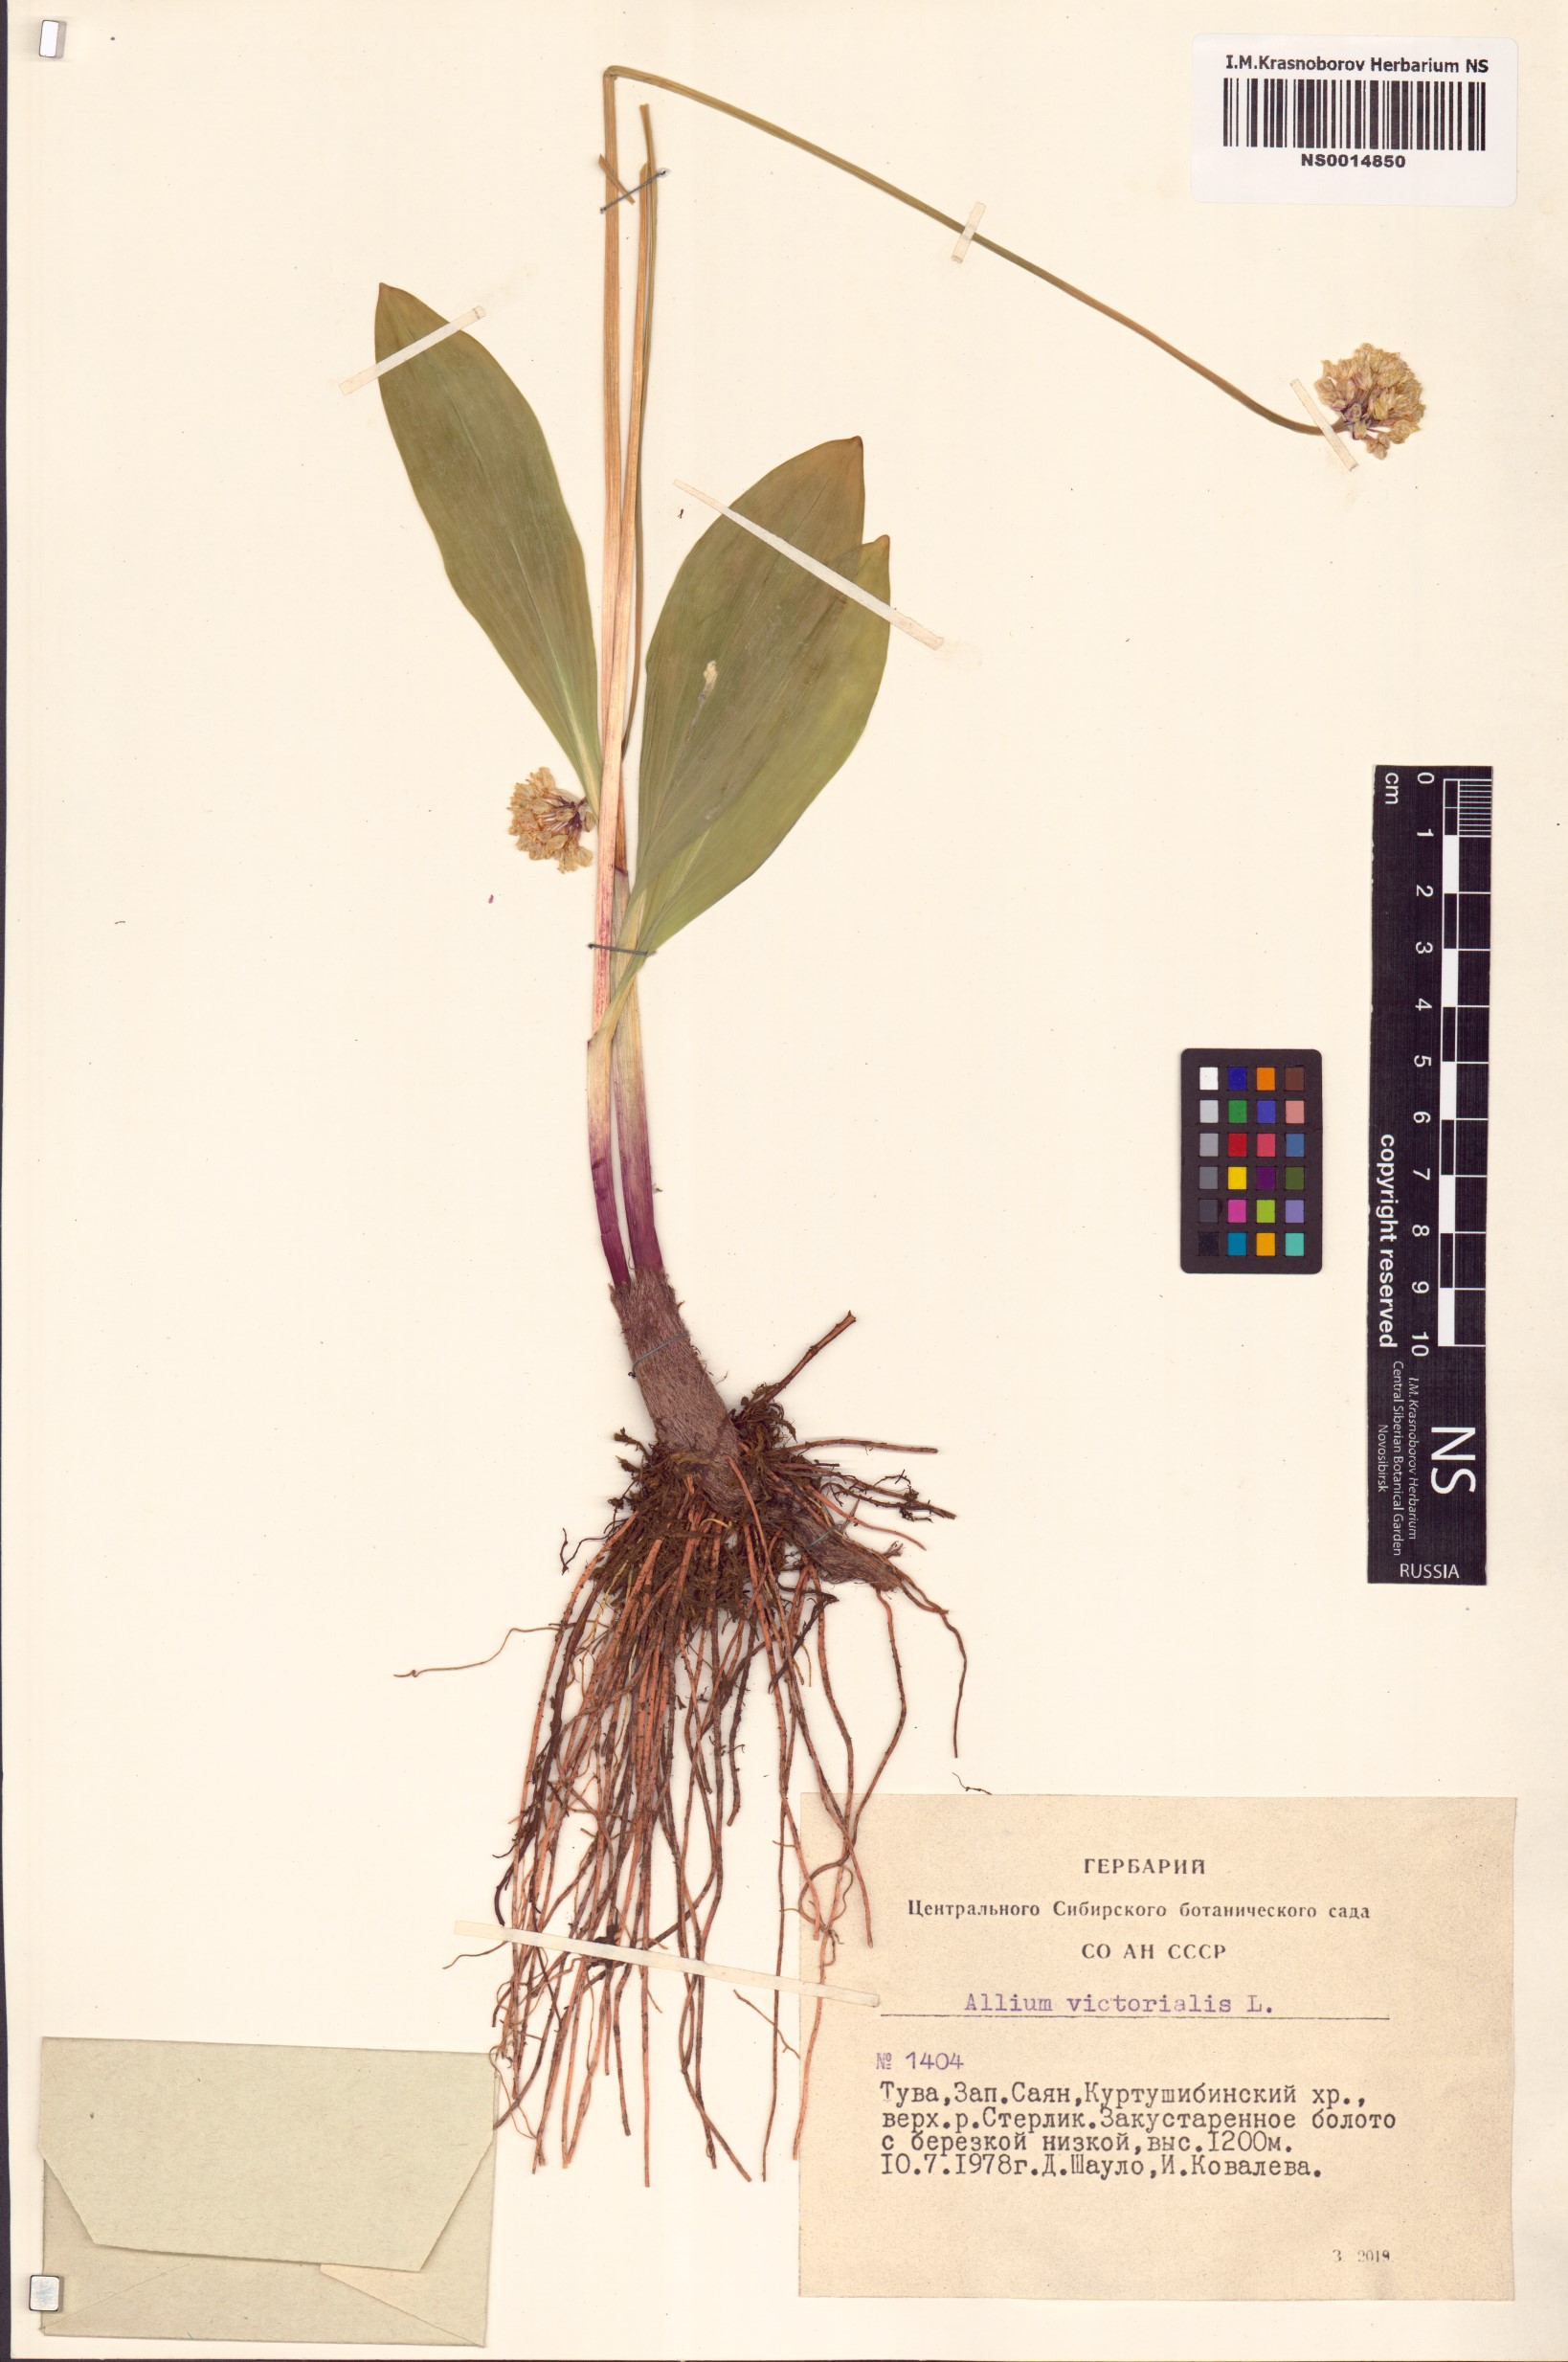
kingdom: Plantae
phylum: Tracheophyta
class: Liliopsida
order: Asparagales
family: Amaryllidaceae
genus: Allium
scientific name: Allium victorialis
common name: Alpine leek
